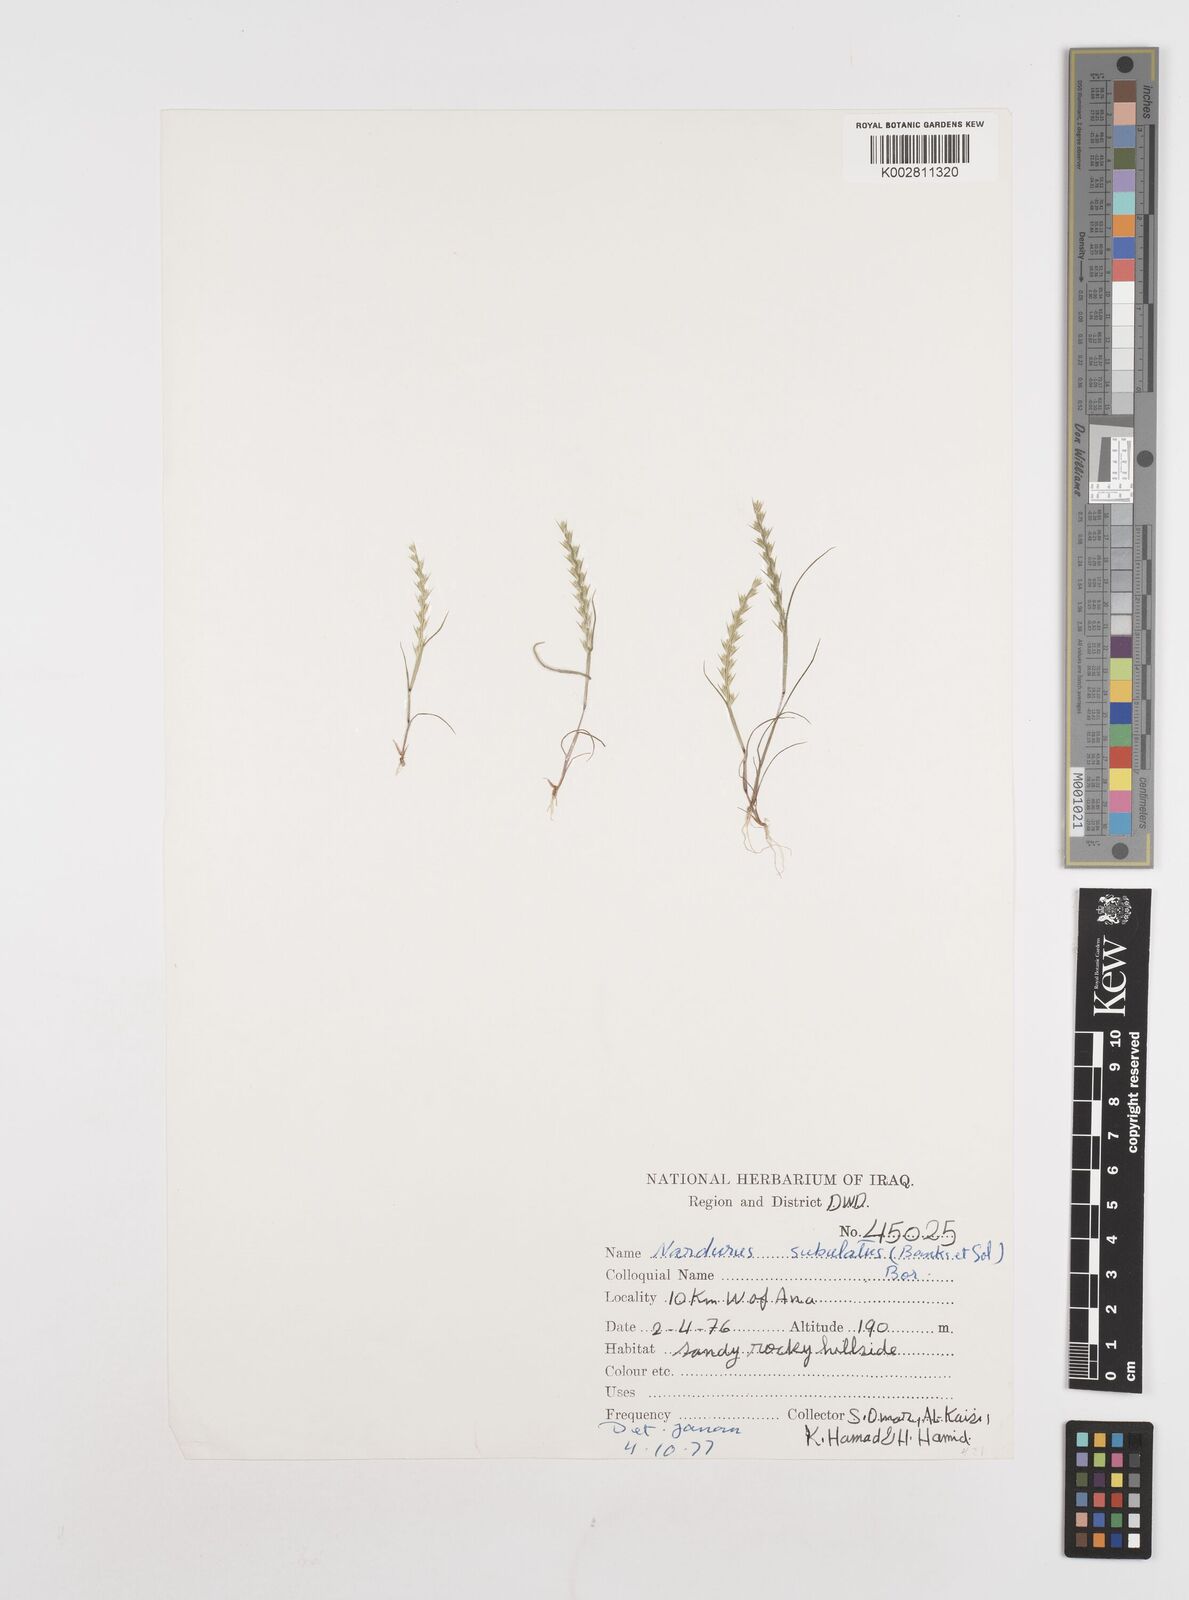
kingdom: Plantae
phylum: Tracheophyta
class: Liliopsida
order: Poales
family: Poaceae
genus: Festuca
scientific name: Festuca orientalis
